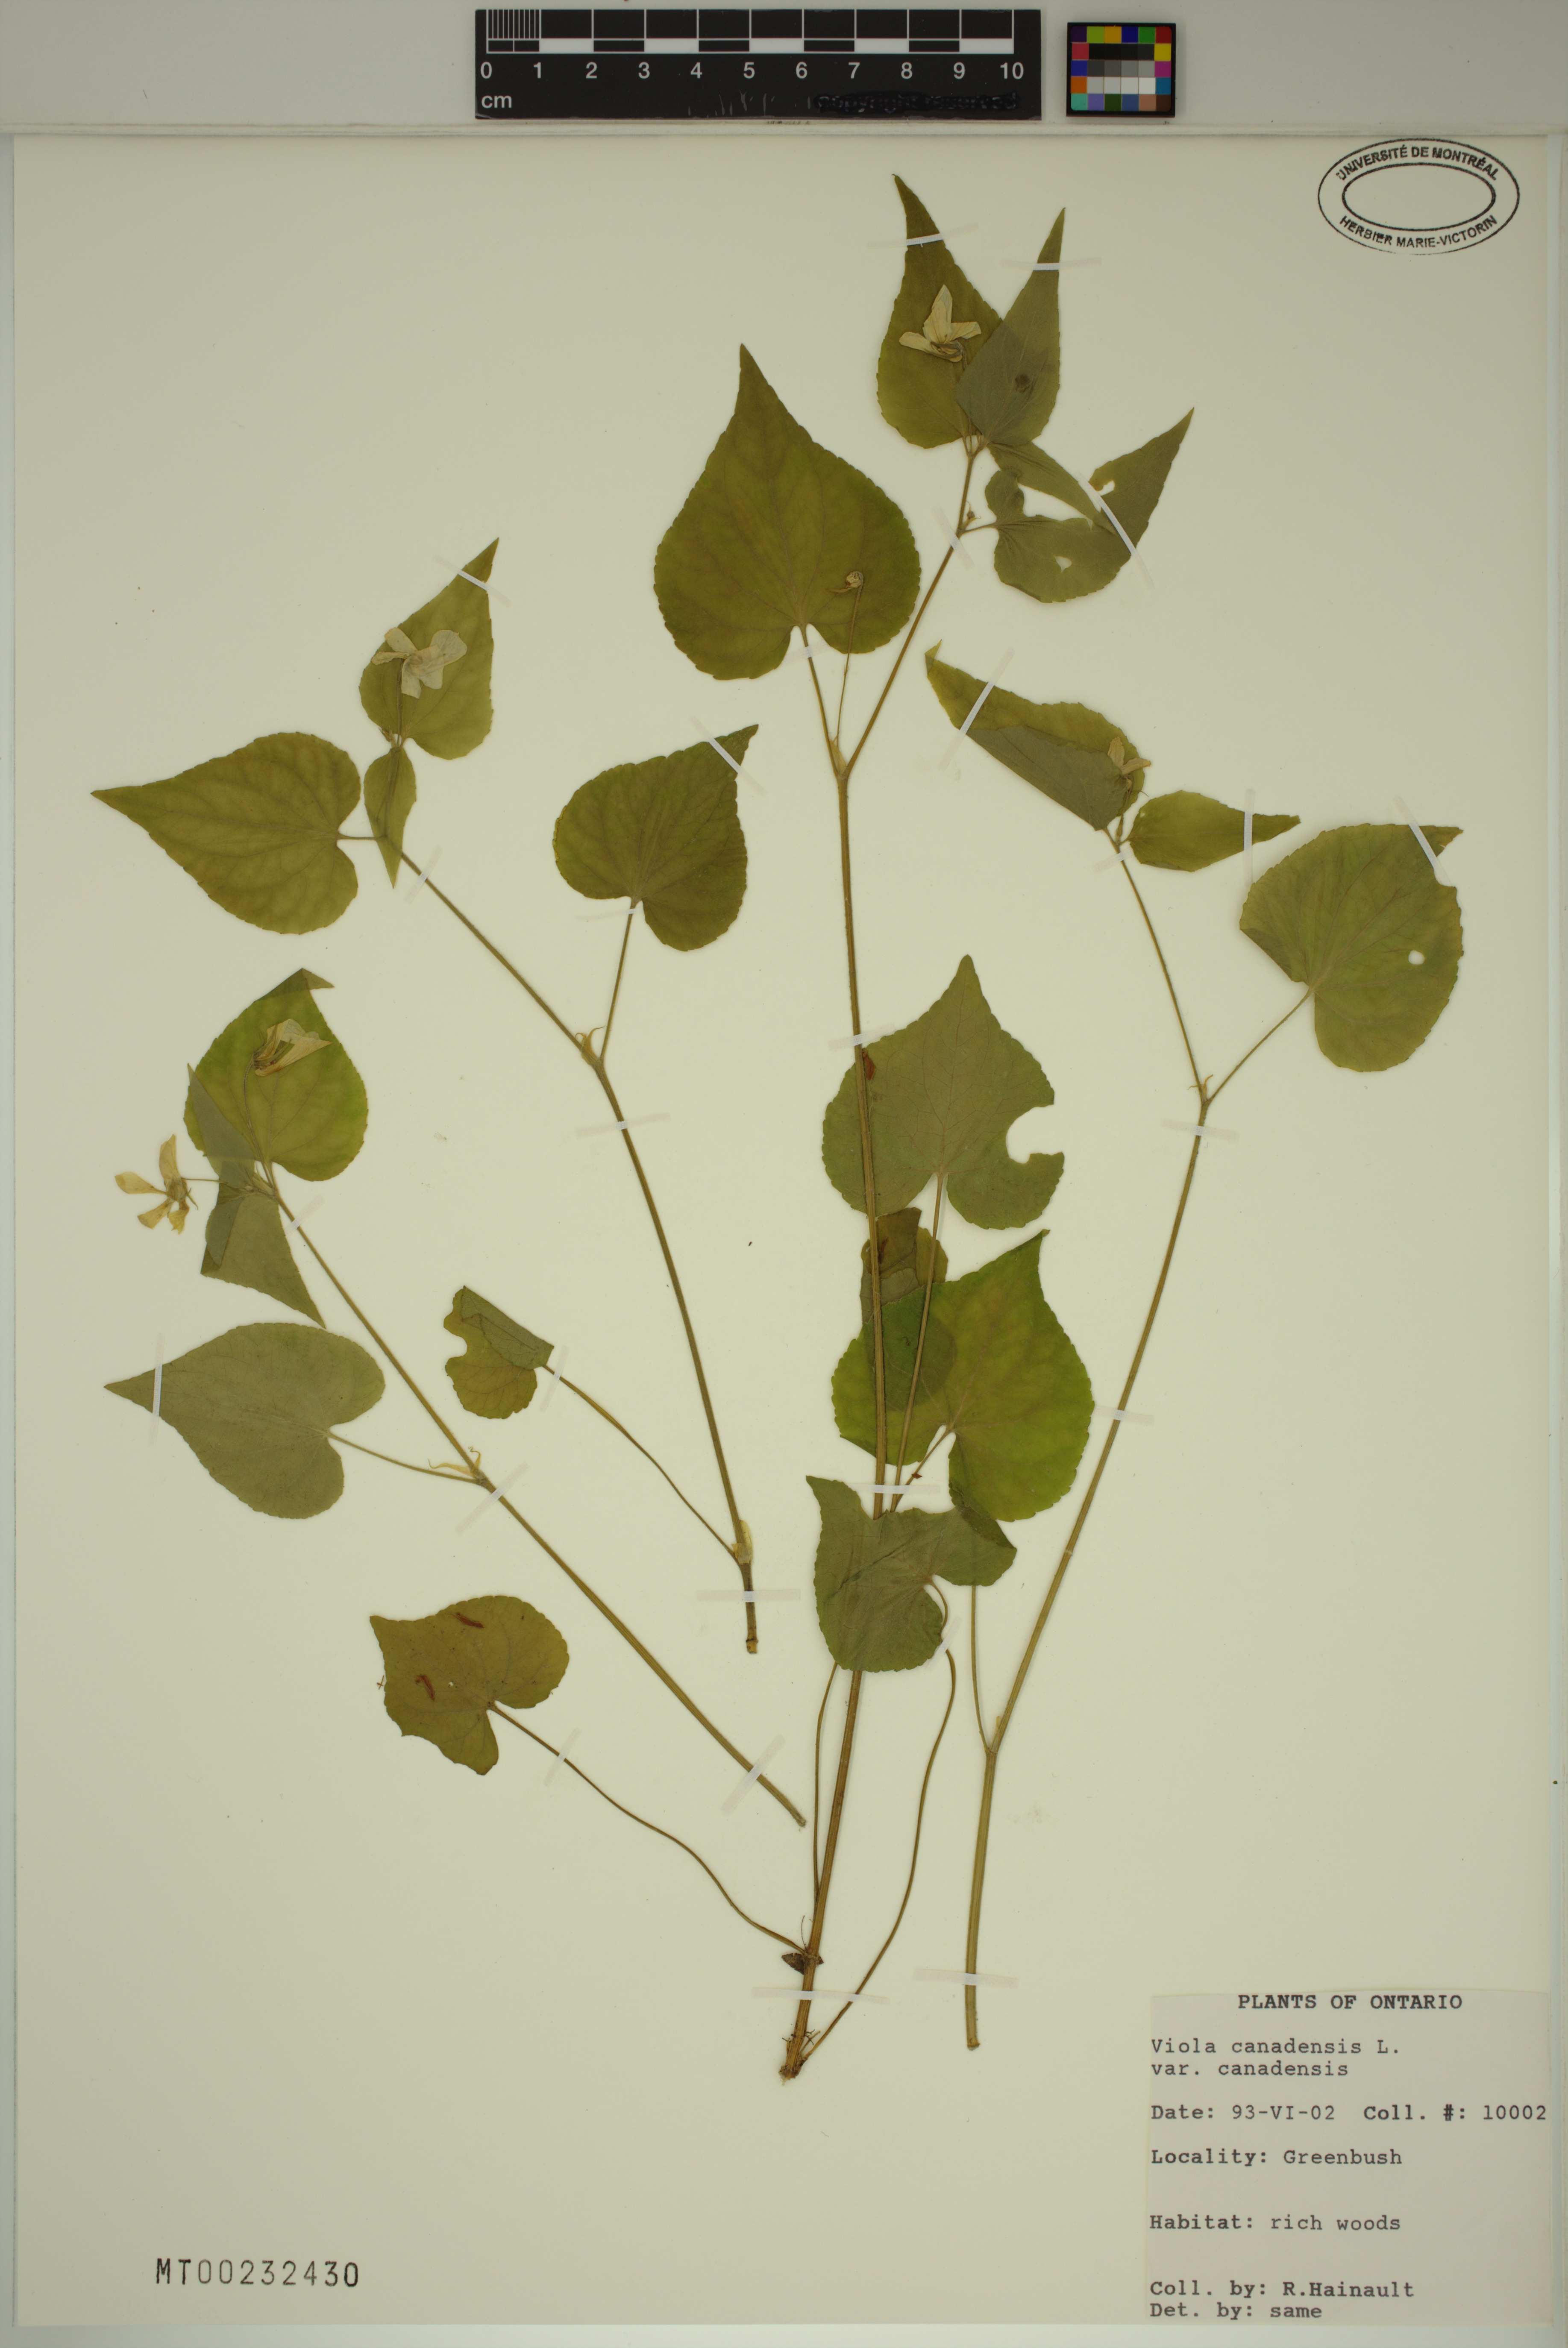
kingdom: Plantae
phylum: Tracheophyta
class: Magnoliopsida
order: Malpighiales
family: Violaceae
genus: Viola
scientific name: Viola canadensis
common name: Canada violet
